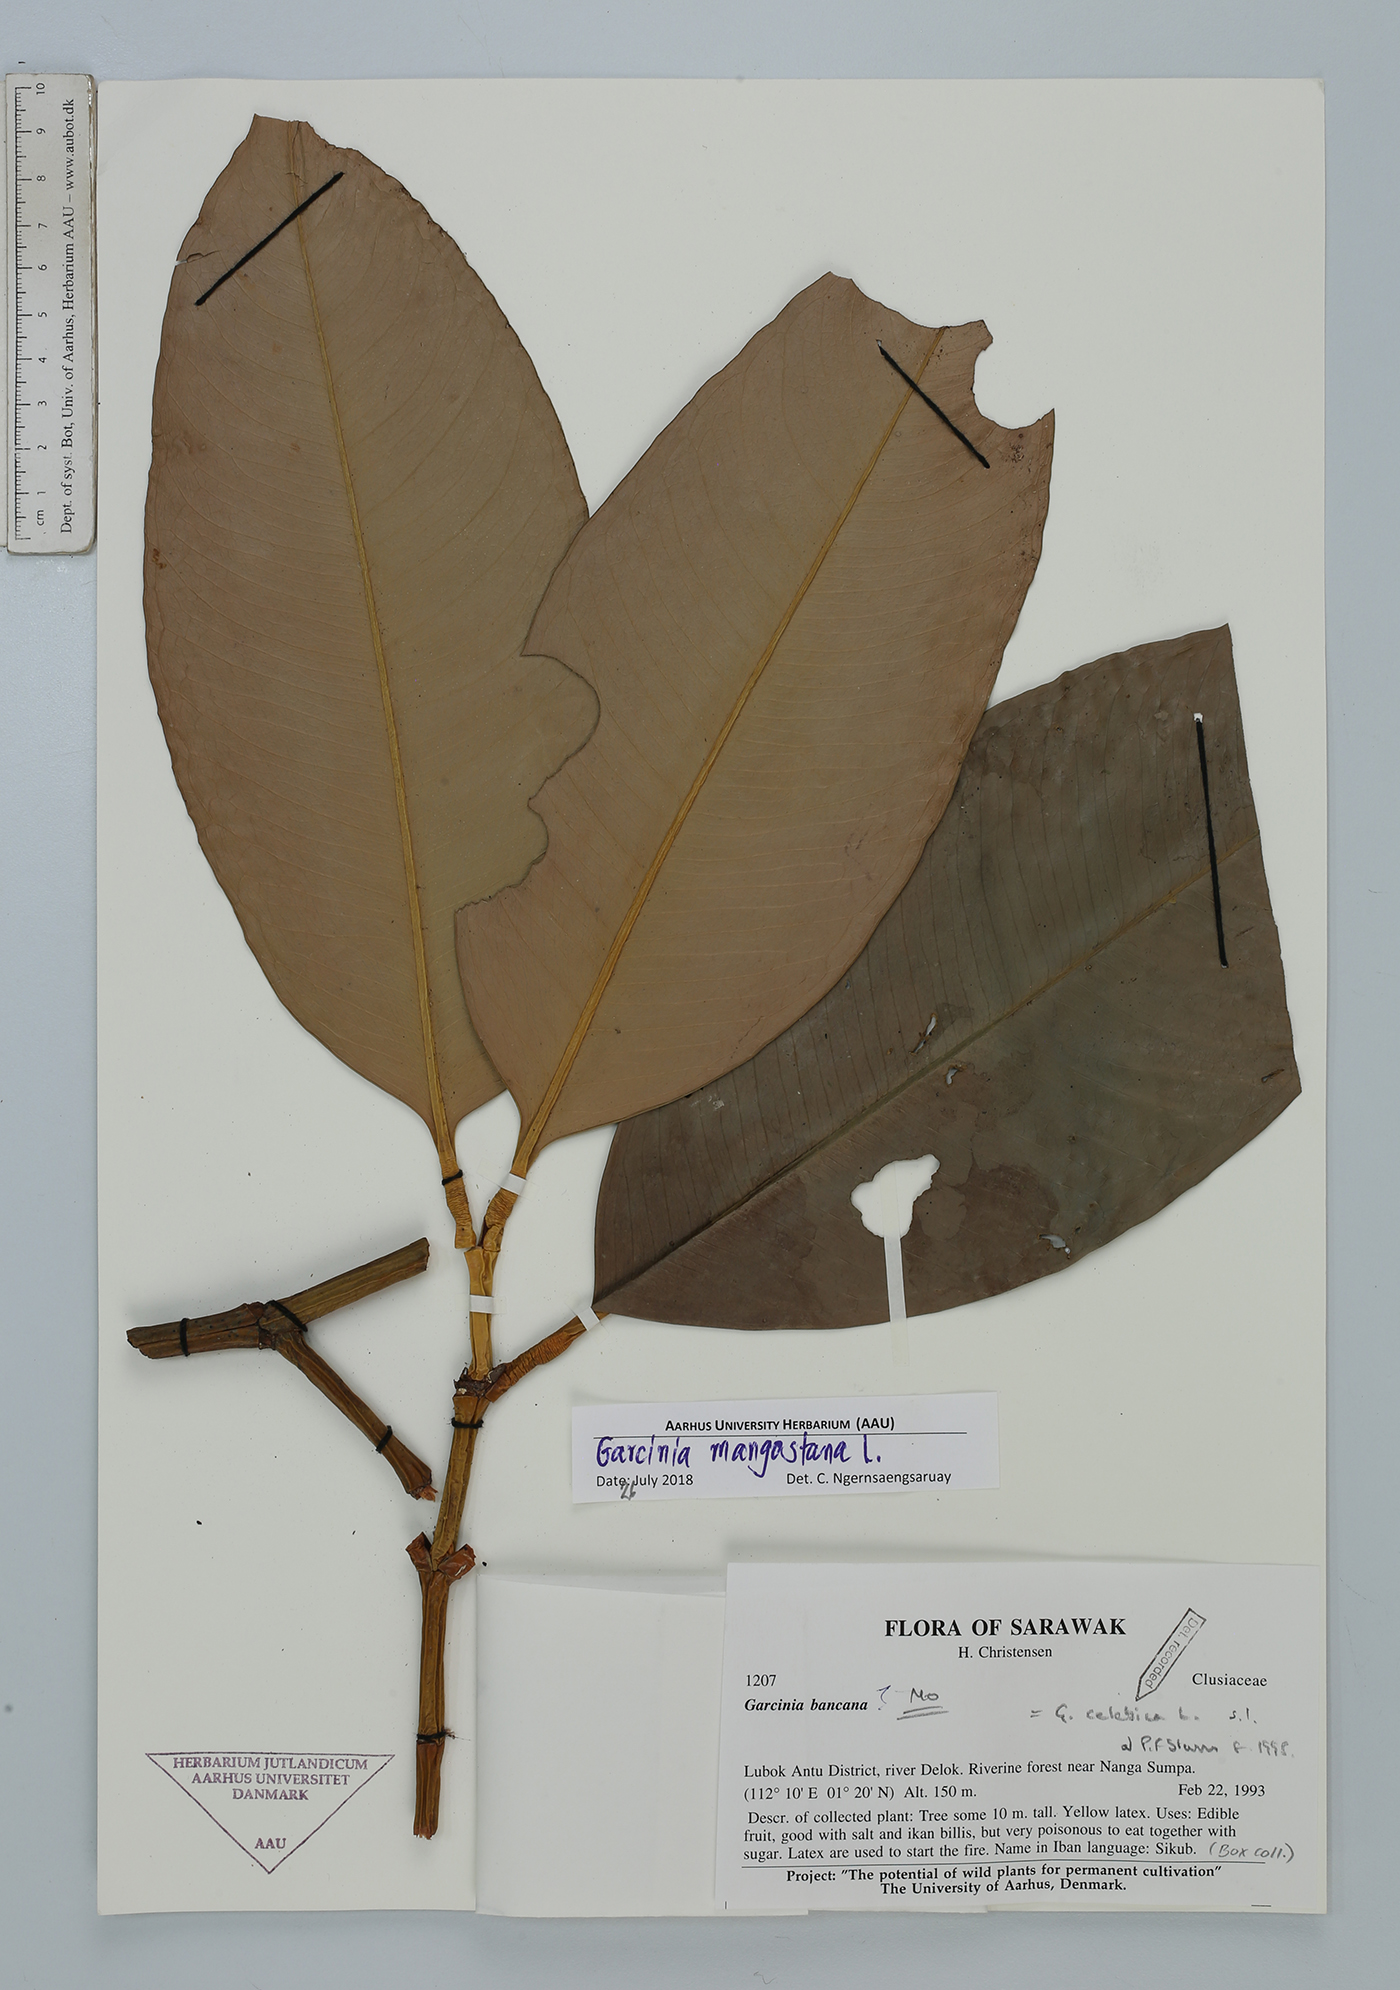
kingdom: Plantae
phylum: Tracheophyta
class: Magnoliopsida
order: Malpighiales
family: Clusiaceae
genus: Garcinia
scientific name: Garcinia mangostana
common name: Mangosteen
